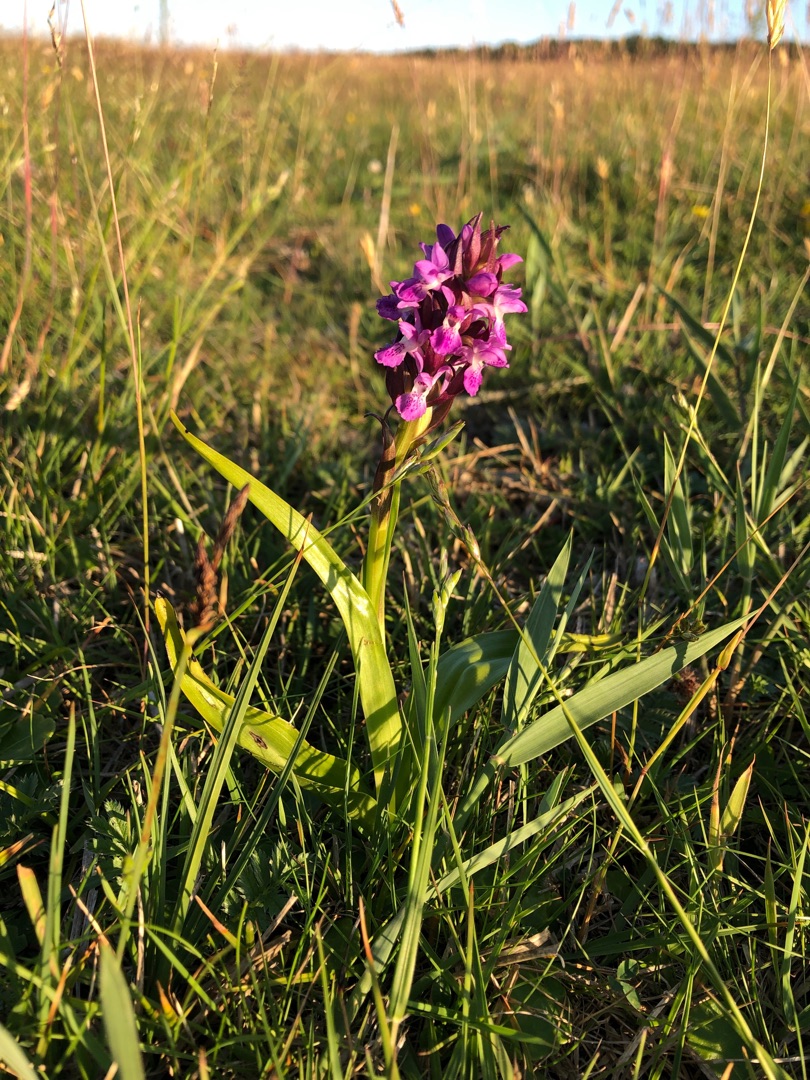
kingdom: Plantae
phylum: Tracheophyta
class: Liliopsida
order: Asparagales
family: Orchidaceae
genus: Dactylorhiza
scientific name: Dactylorhiza majalis
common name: Priklæbet gøgeurt
